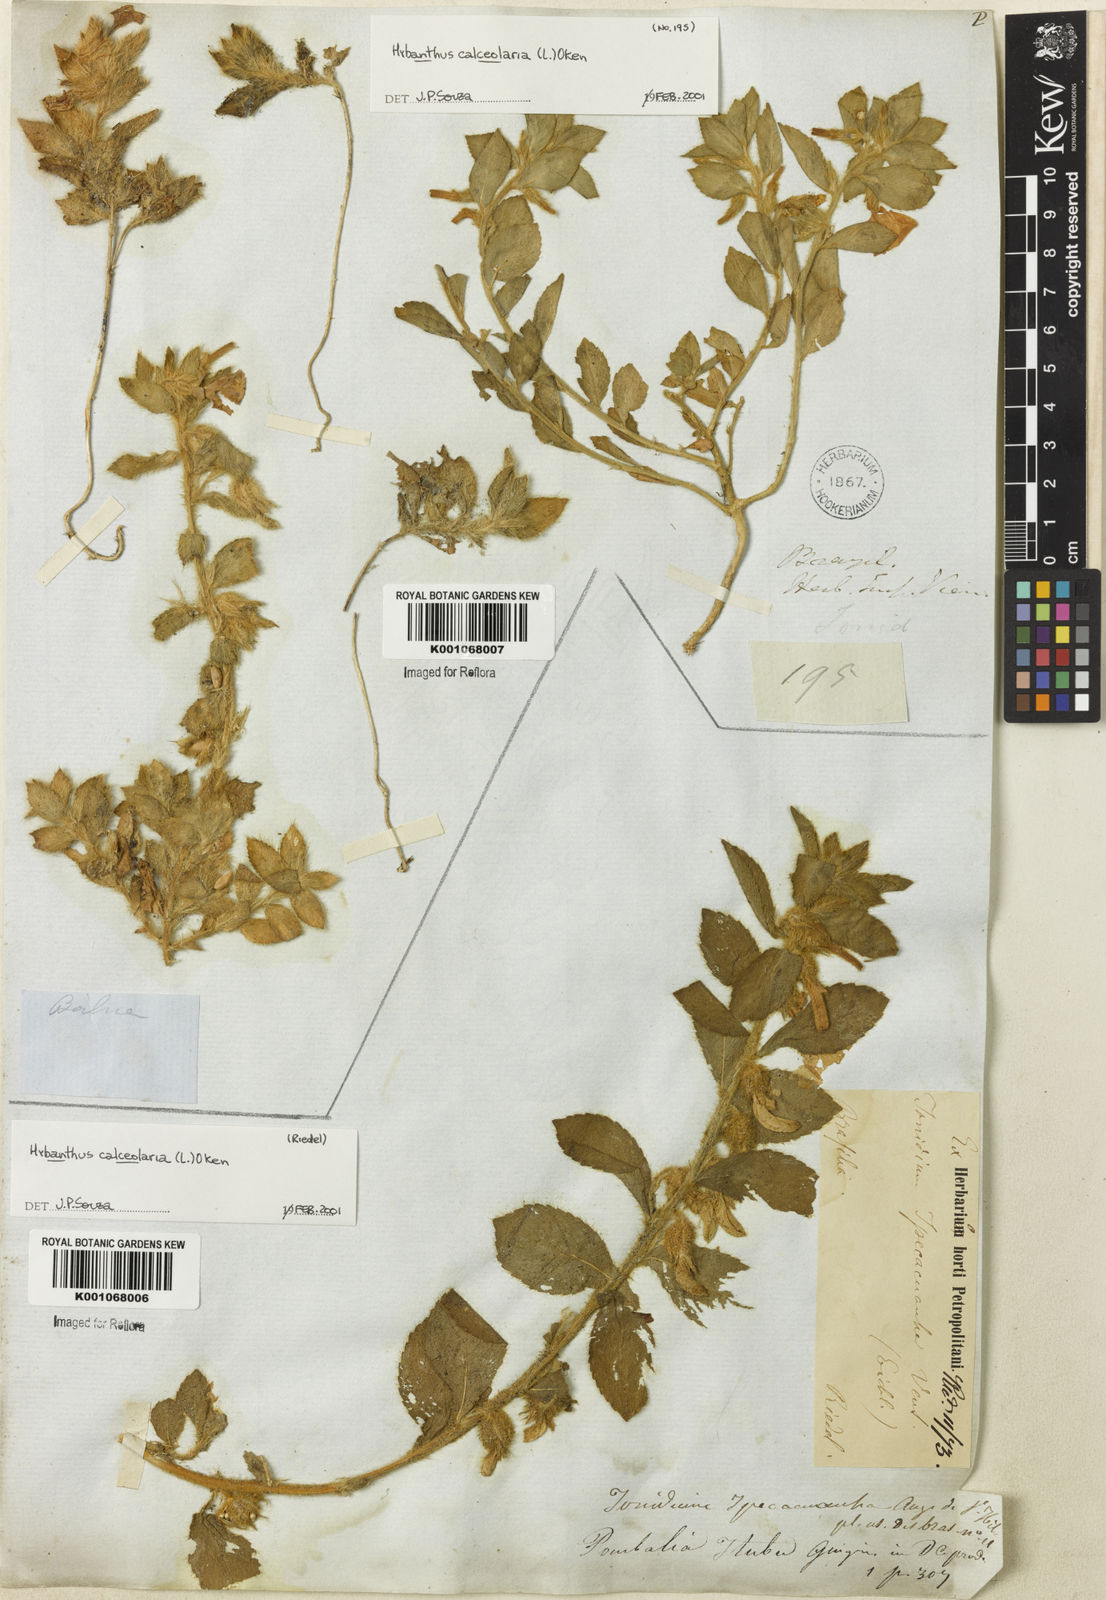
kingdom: Plantae
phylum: Tracheophyta
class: Magnoliopsida
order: Malpighiales
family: Violaceae
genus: Hybanthus
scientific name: Hybanthus
